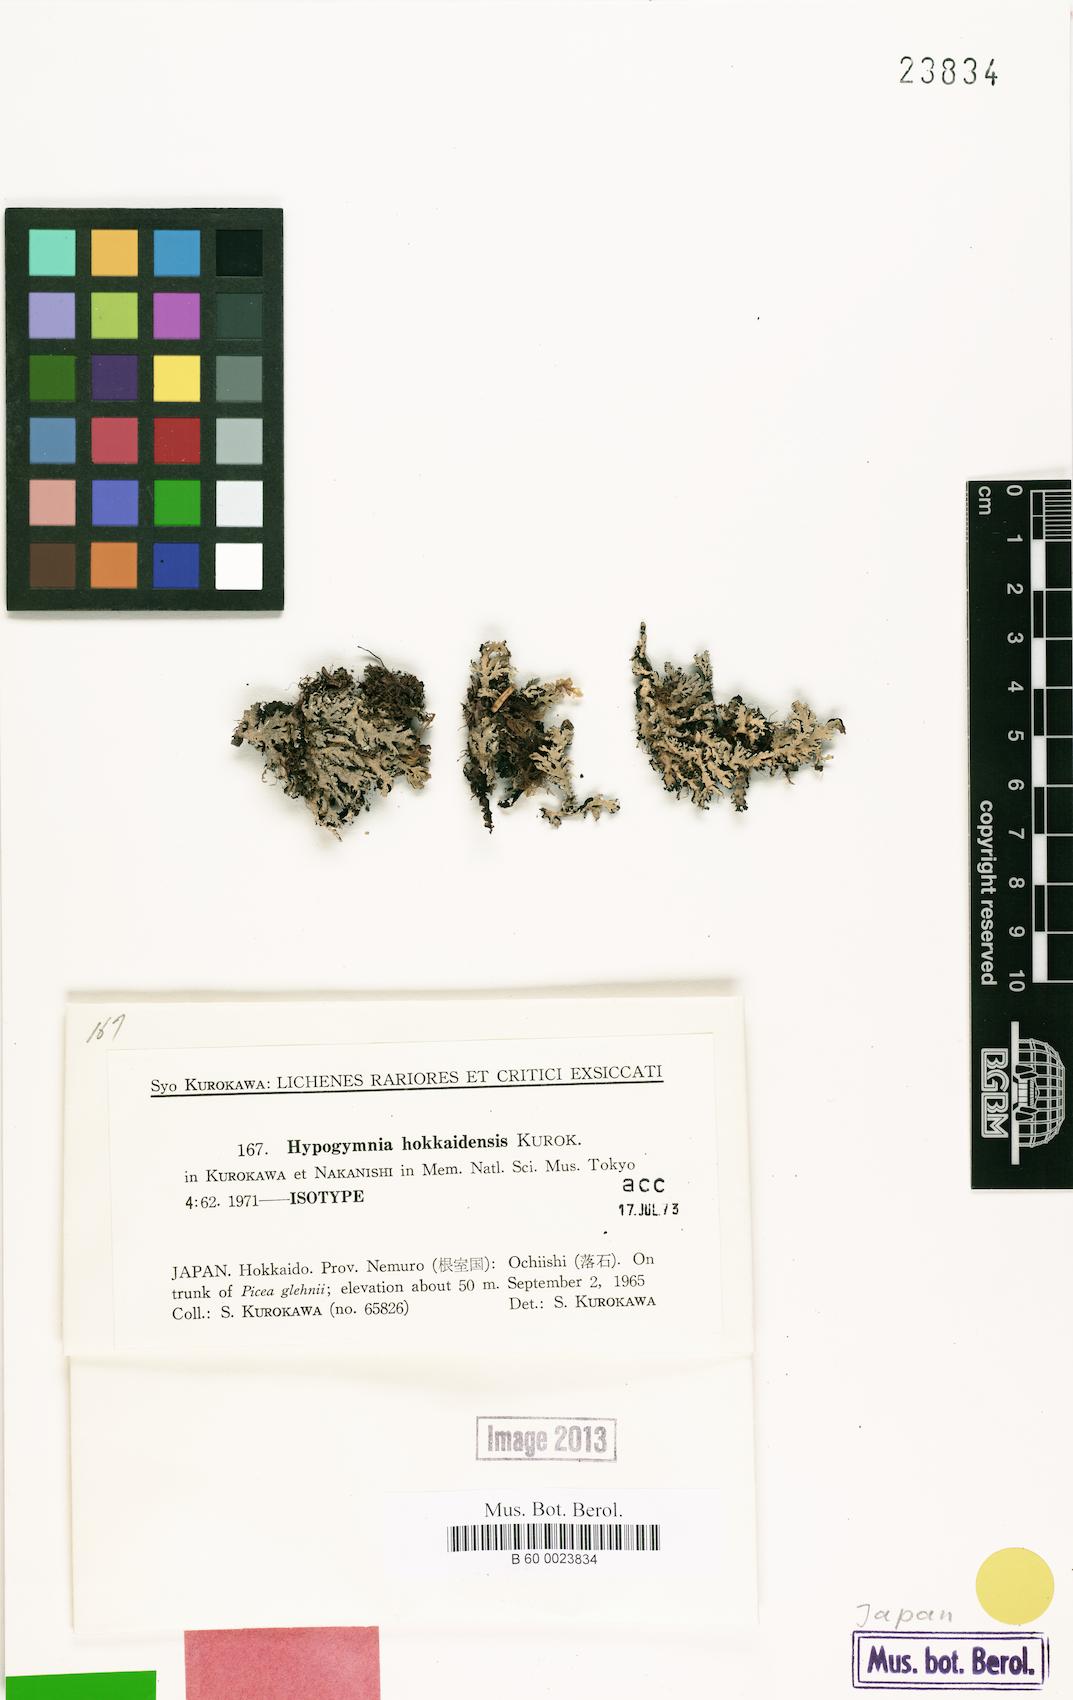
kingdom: Fungi
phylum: Ascomycota
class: Lecanoromycetes
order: Lecanorales
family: Parmeliaceae
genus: Hypogymnia
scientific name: Hypogymnia hokkaidensis
